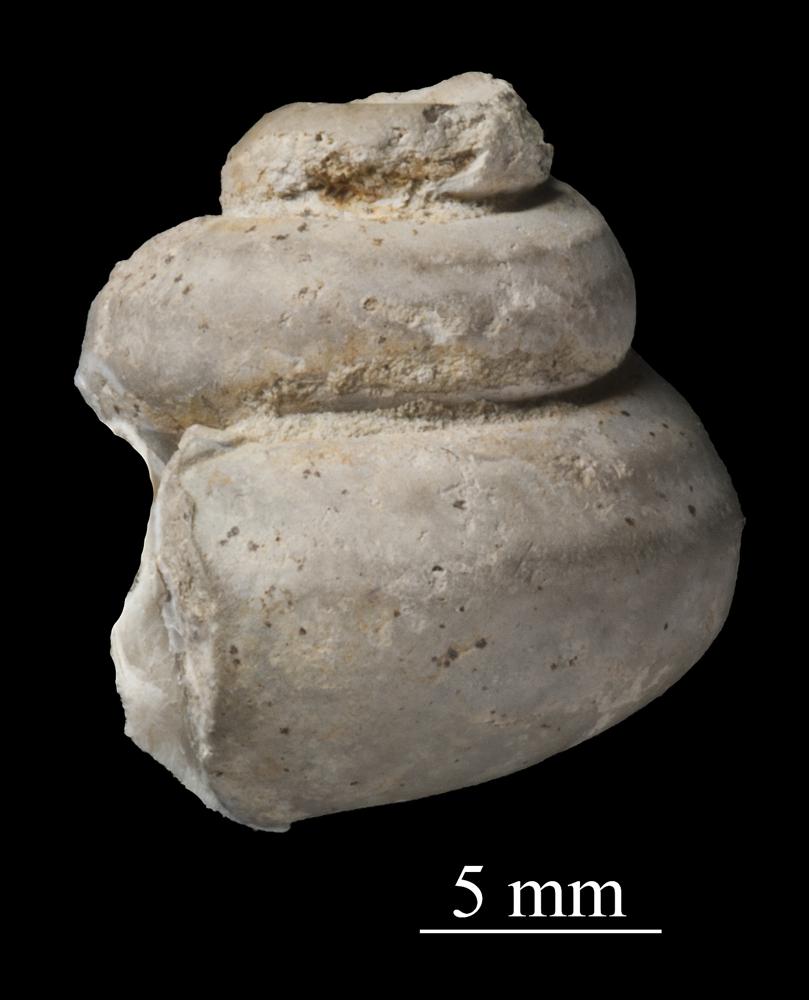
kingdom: Animalia
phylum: Mollusca
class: Gastropoda
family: Lophospiridae
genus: Proturritella
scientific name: Proturritella Turbinites bicarinatus
